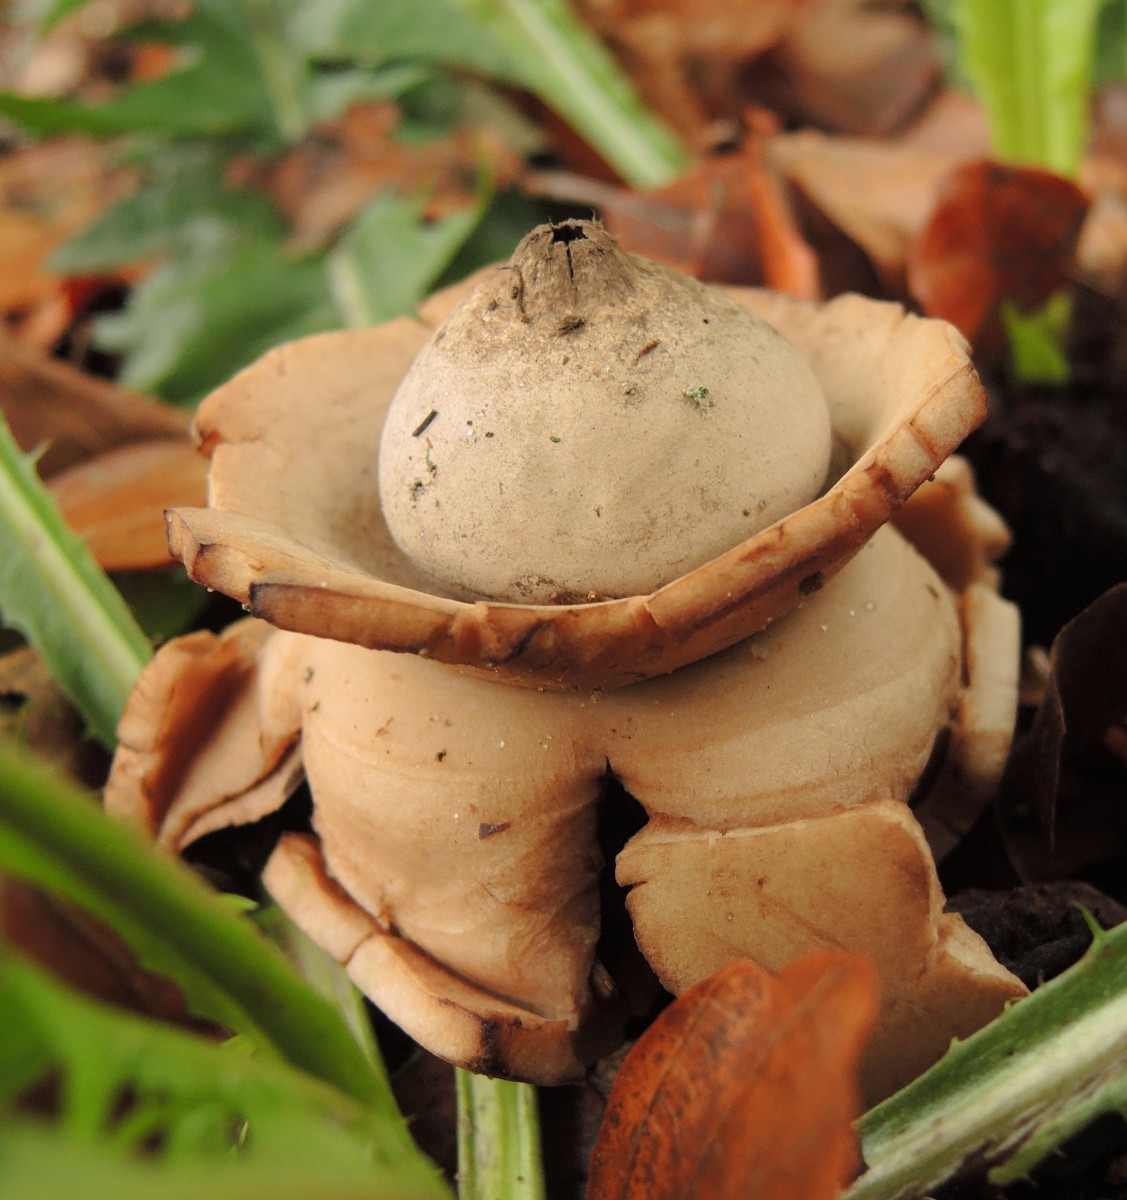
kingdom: Fungi
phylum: Basidiomycota
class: Agaricomycetes
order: Geastrales
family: Geastraceae
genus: Geastrum
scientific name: Geastrum michelianum
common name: kødet stjernebold
